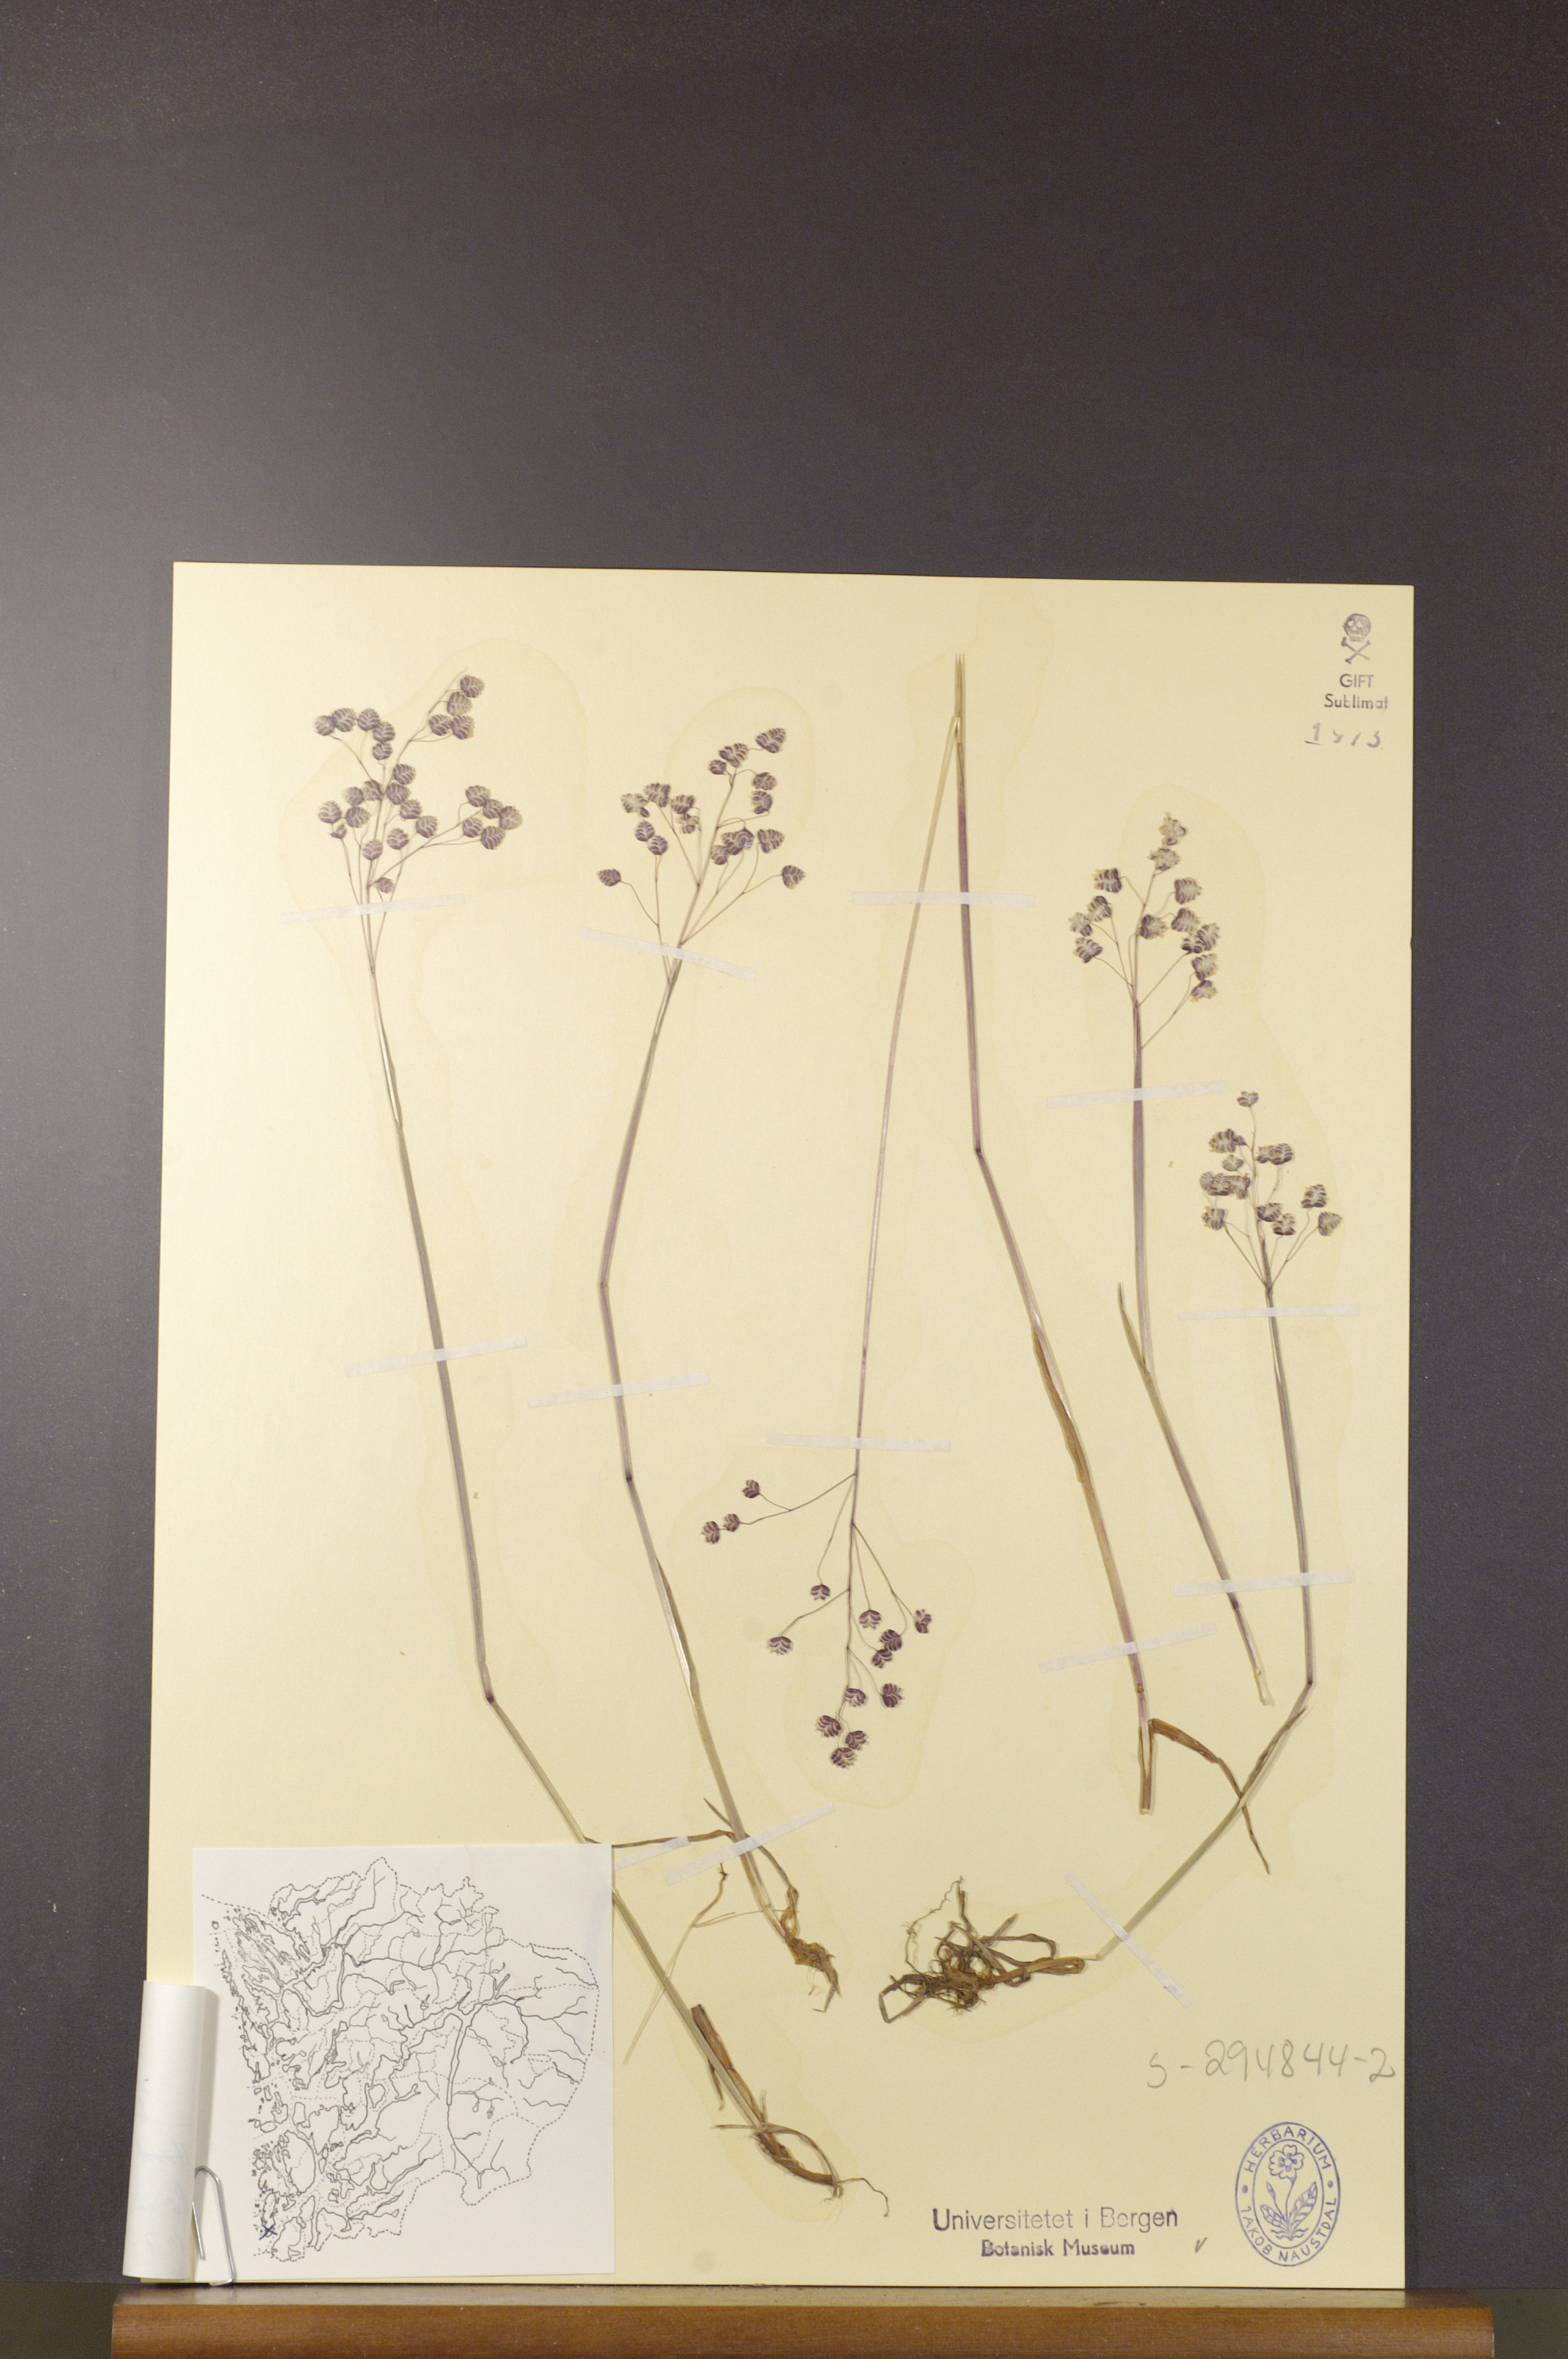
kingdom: Plantae
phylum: Tracheophyta
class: Liliopsida
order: Poales
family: Poaceae
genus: Briza
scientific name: Briza media
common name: Quaking grass
